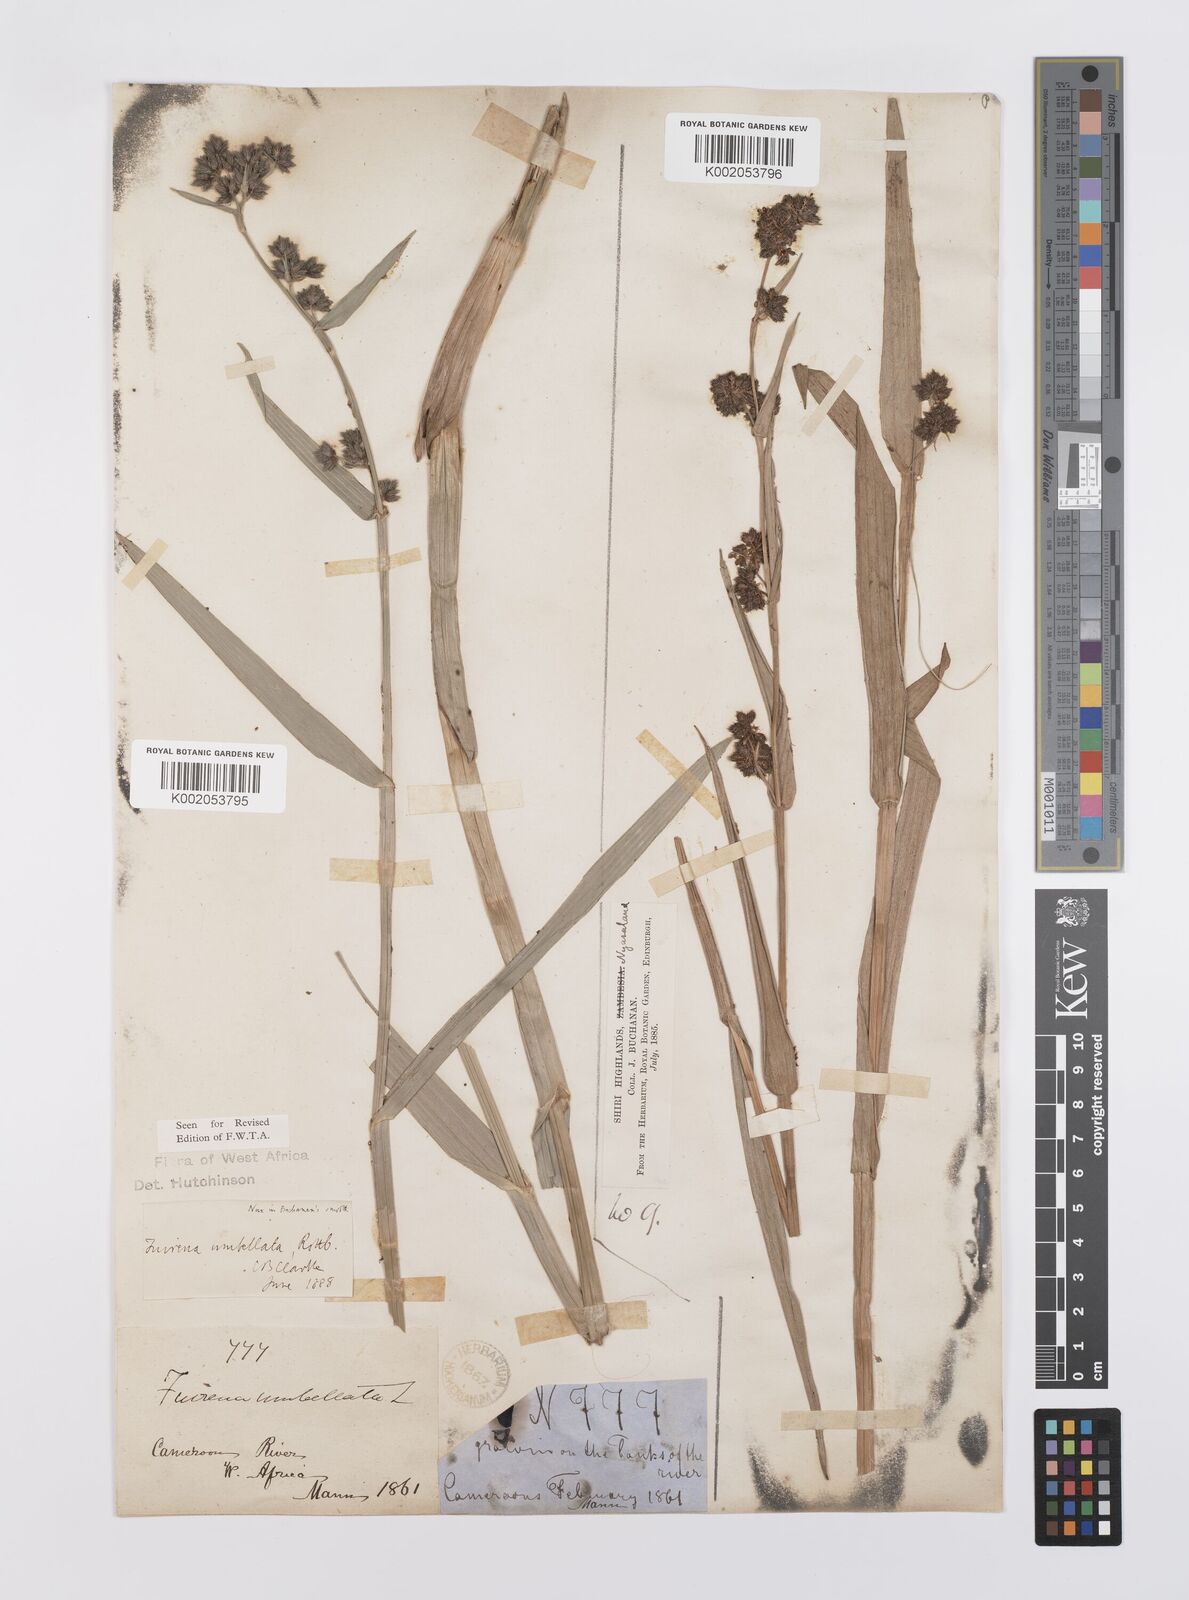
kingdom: Plantae
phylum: Tracheophyta
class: Liliopsida
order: Poales
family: Cyperaceae
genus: Fuirena
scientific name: Fuirena umbellata
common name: Yefen
